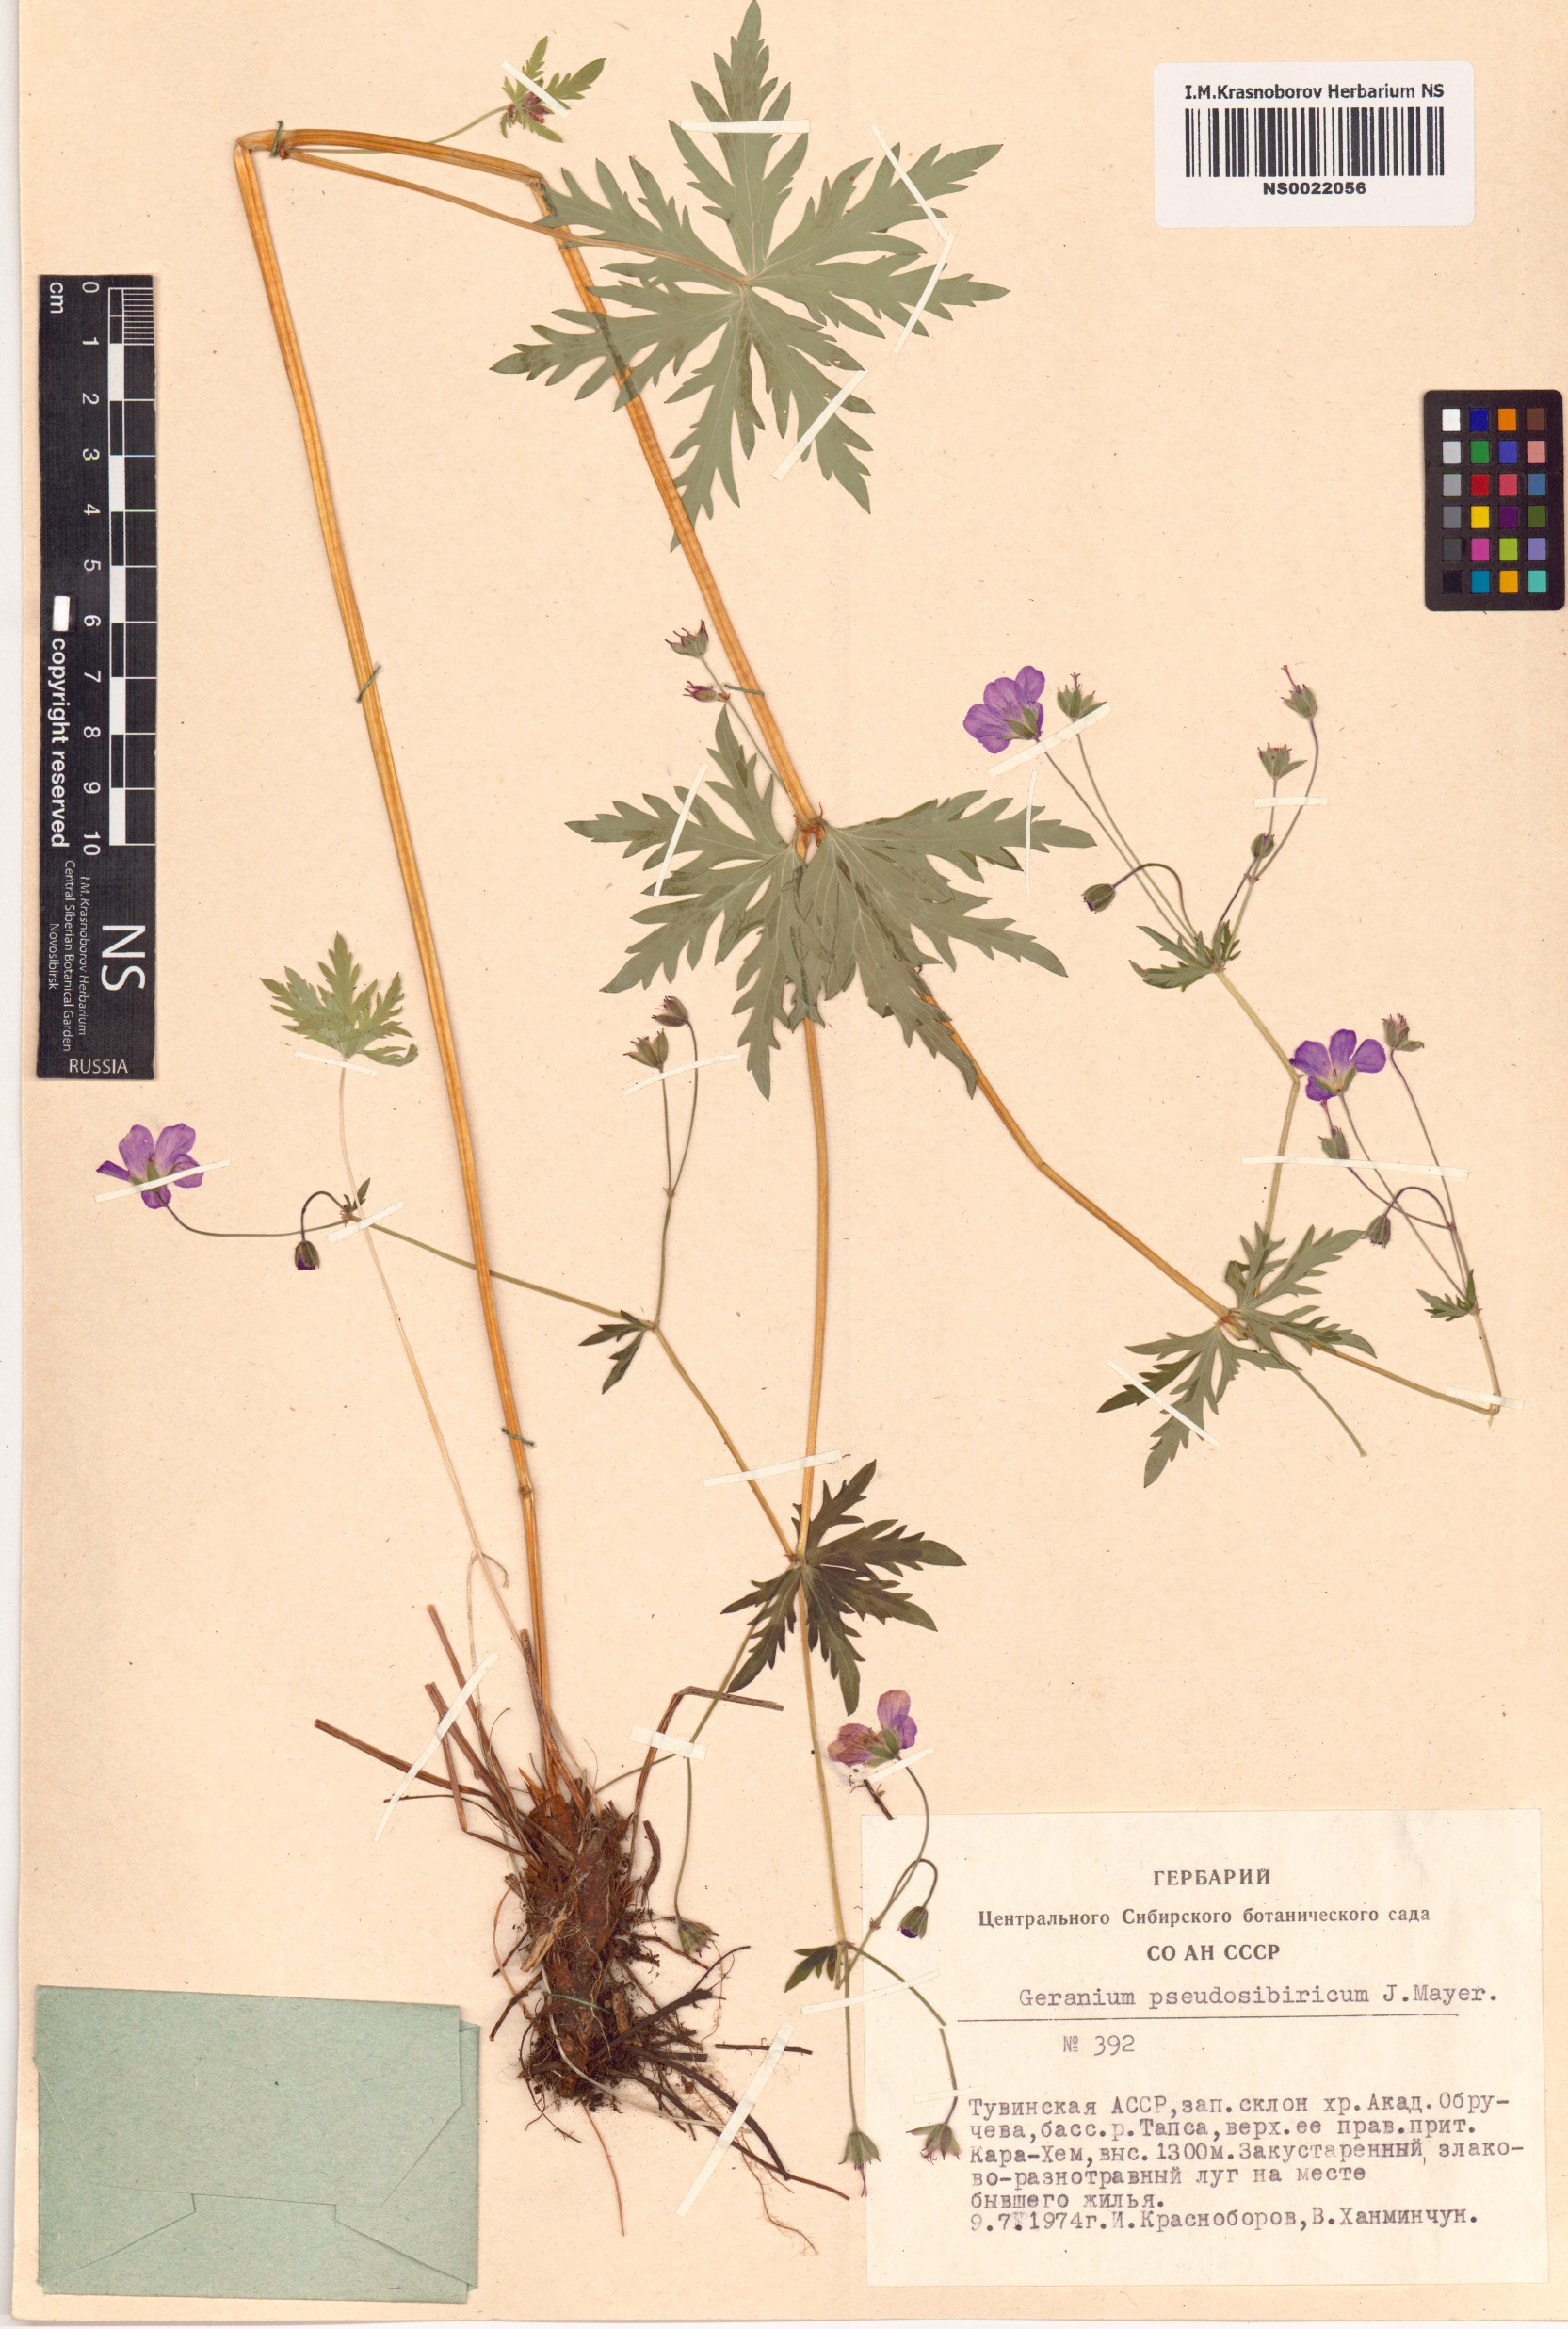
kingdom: Plantae
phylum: Tracheophyta
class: Magnoliopsida
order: Geraniales
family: Geraniaceae
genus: Geranium
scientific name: Geranium pseudosibiricum
